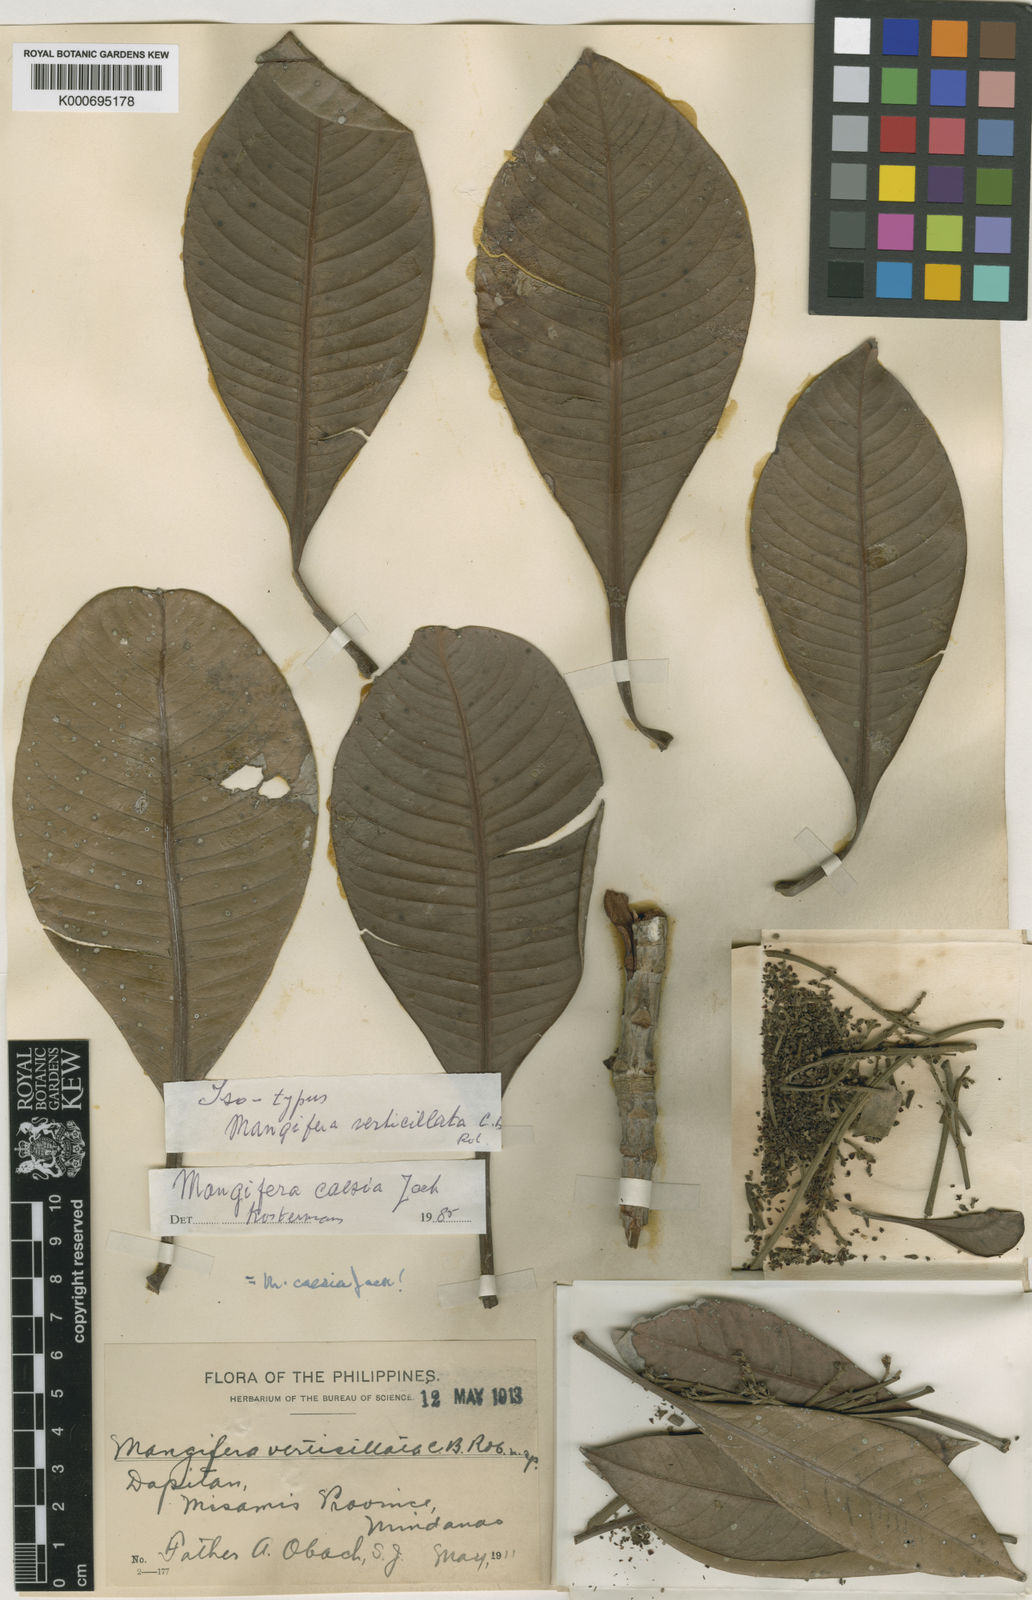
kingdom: Plantae
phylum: Tracheophyta
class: Magnoliopsida
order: Sapindales
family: Anacardiaceae
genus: Mangifera
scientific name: Mangifera caesia
